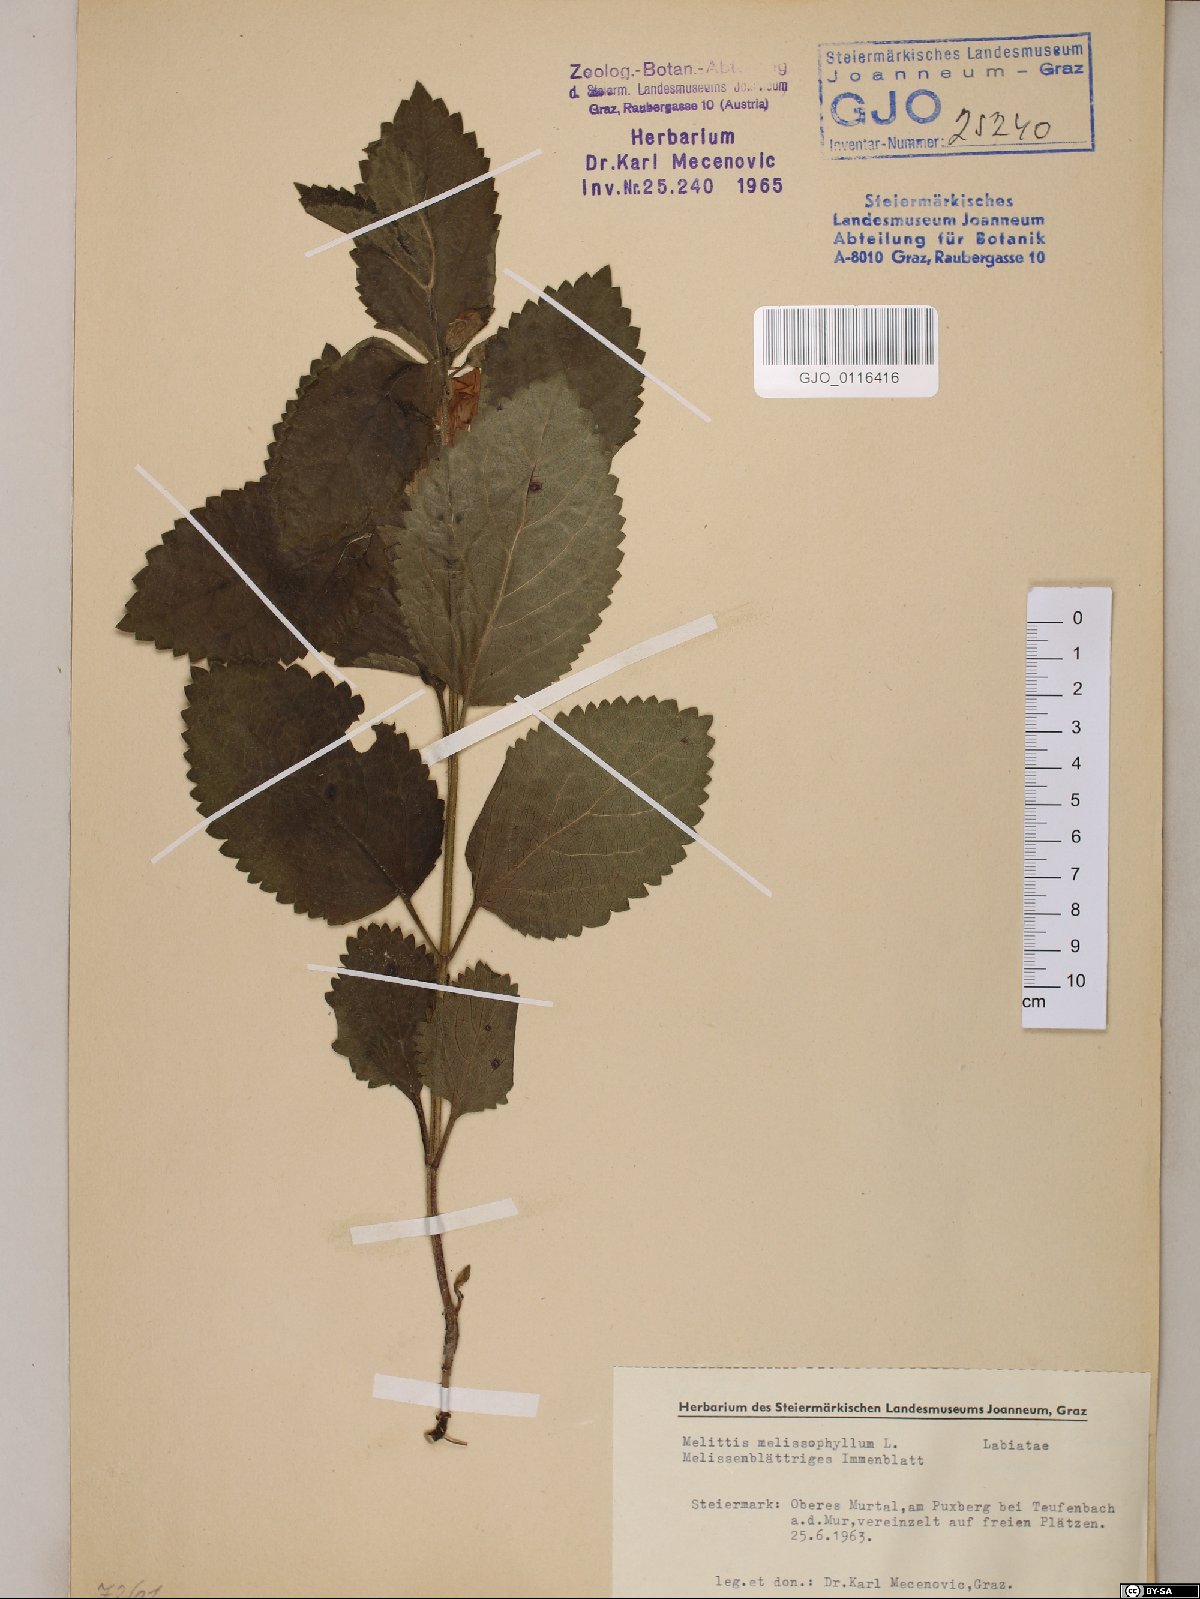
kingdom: Plantae
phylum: Tracheophyta
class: Magnoliopsida
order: Lamiales
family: Lamiaceae
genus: Melittis
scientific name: Melittis melissophyllum
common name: Bastard balm
